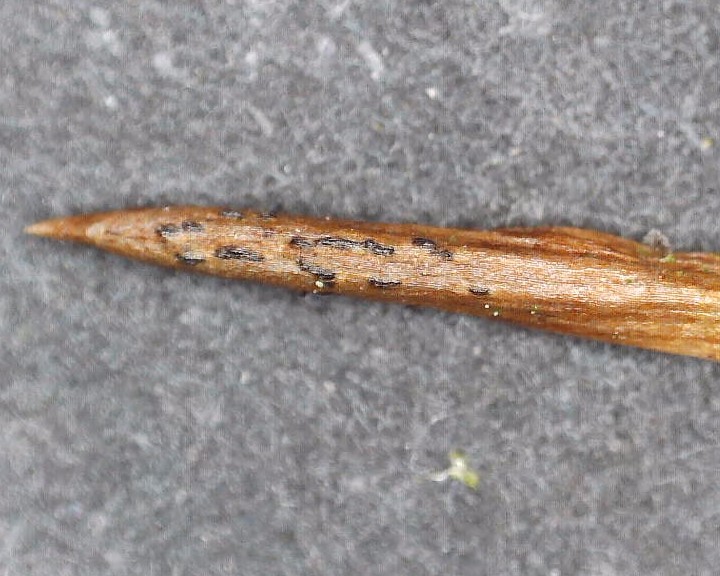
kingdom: Fungi
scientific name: Fungi
